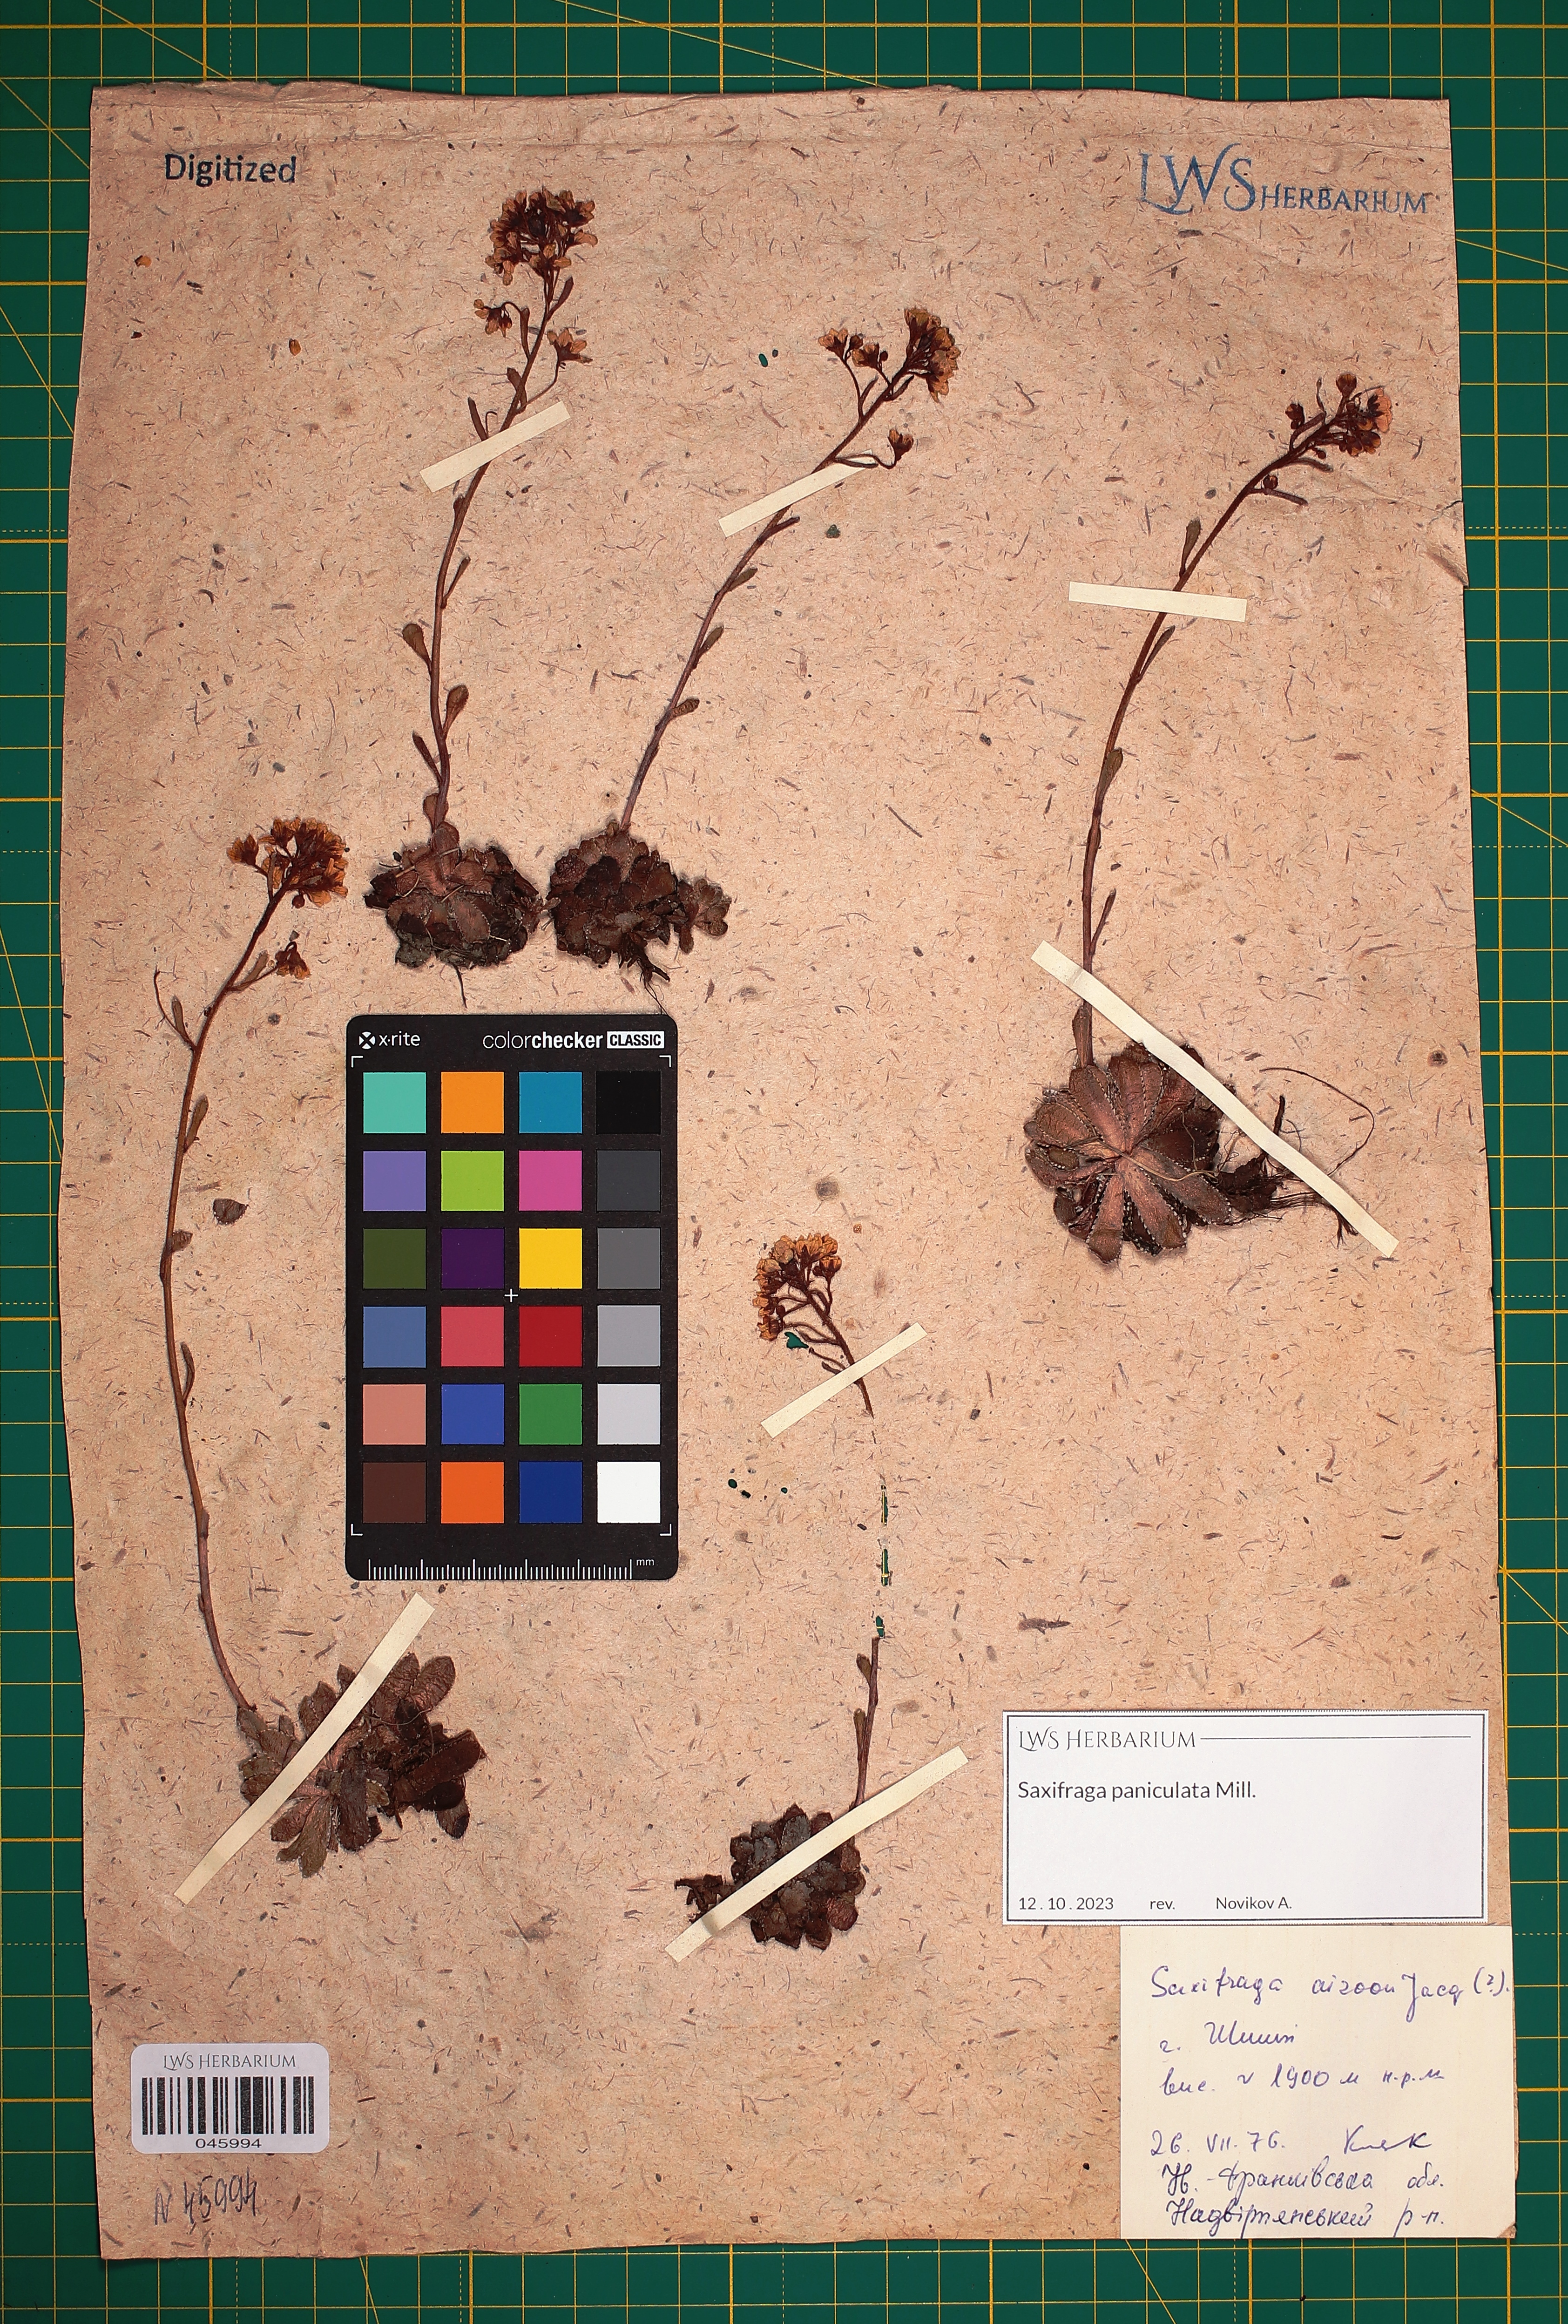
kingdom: Plantae
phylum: Tracheophyta
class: Magnoliopsida
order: Saxifragales
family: Saxifragaceae
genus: Saxifraga
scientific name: Saxifraga paniculata
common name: Livelong saxifrage
